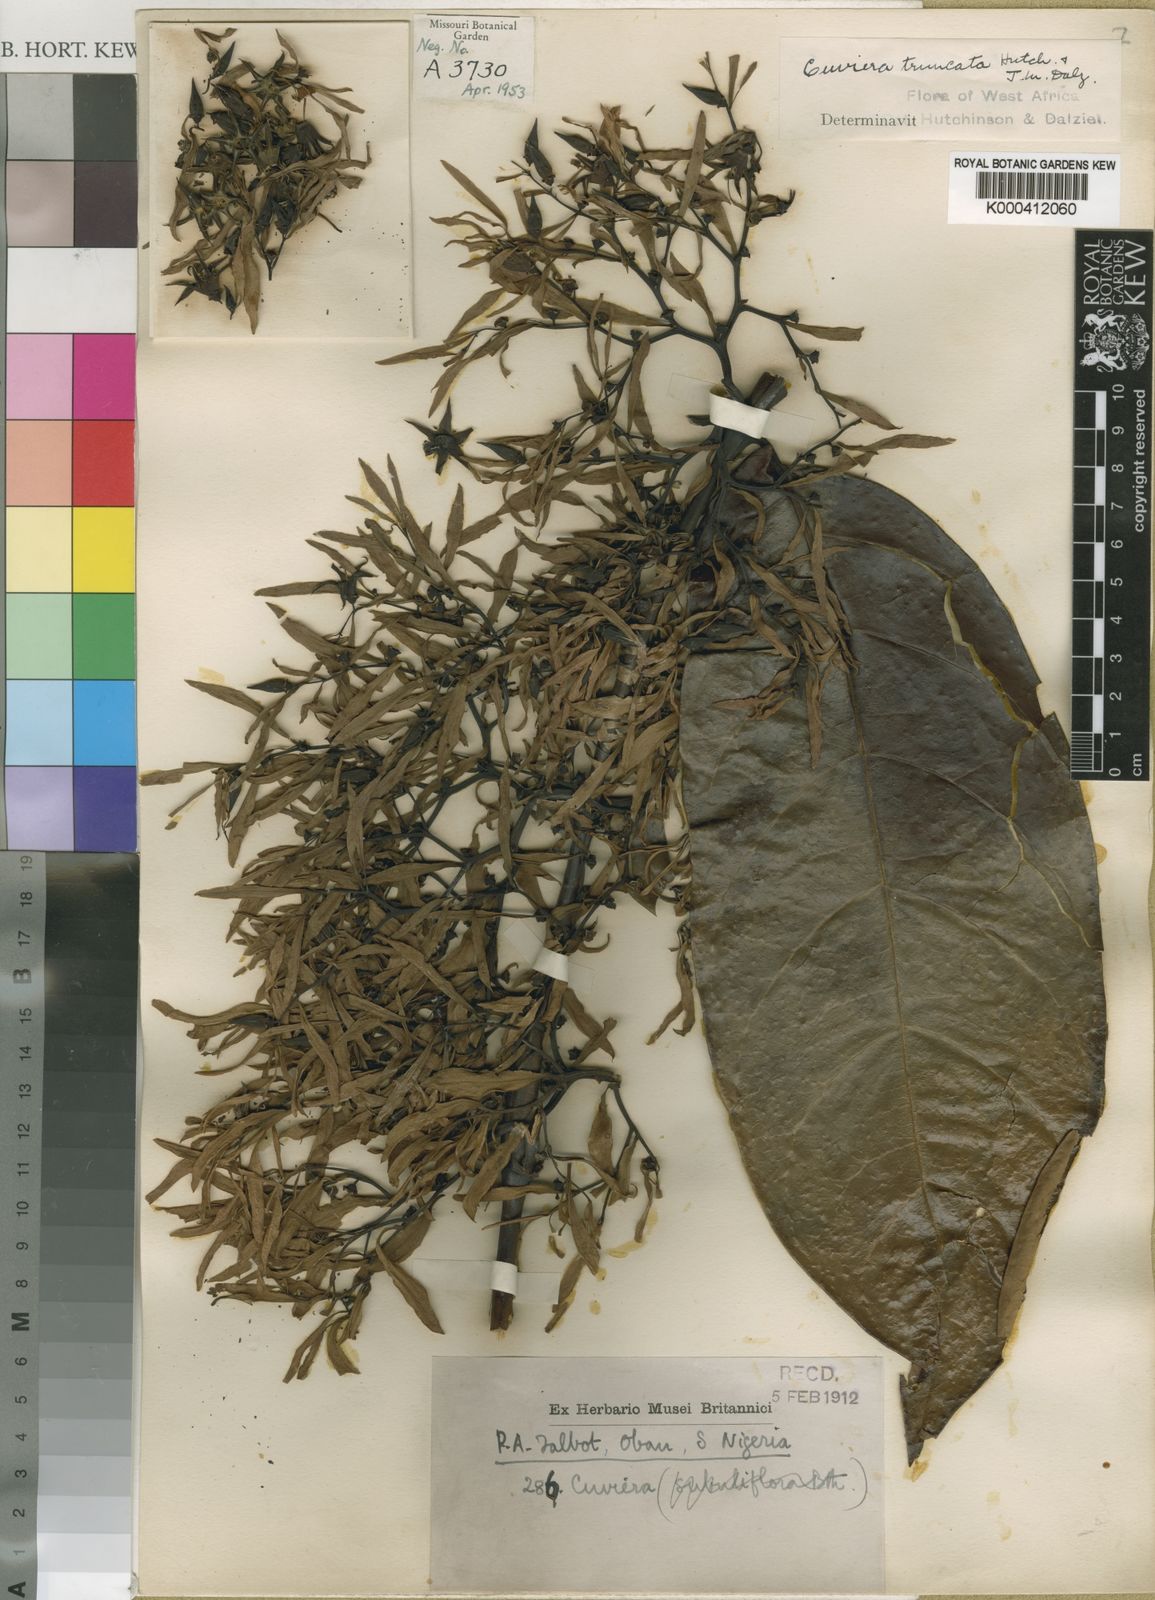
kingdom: Plantae
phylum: Tracheophyta
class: Magnoliopsida
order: Gentianales
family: Rubiaceae
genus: Cuviera
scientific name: Cuviera truncata
